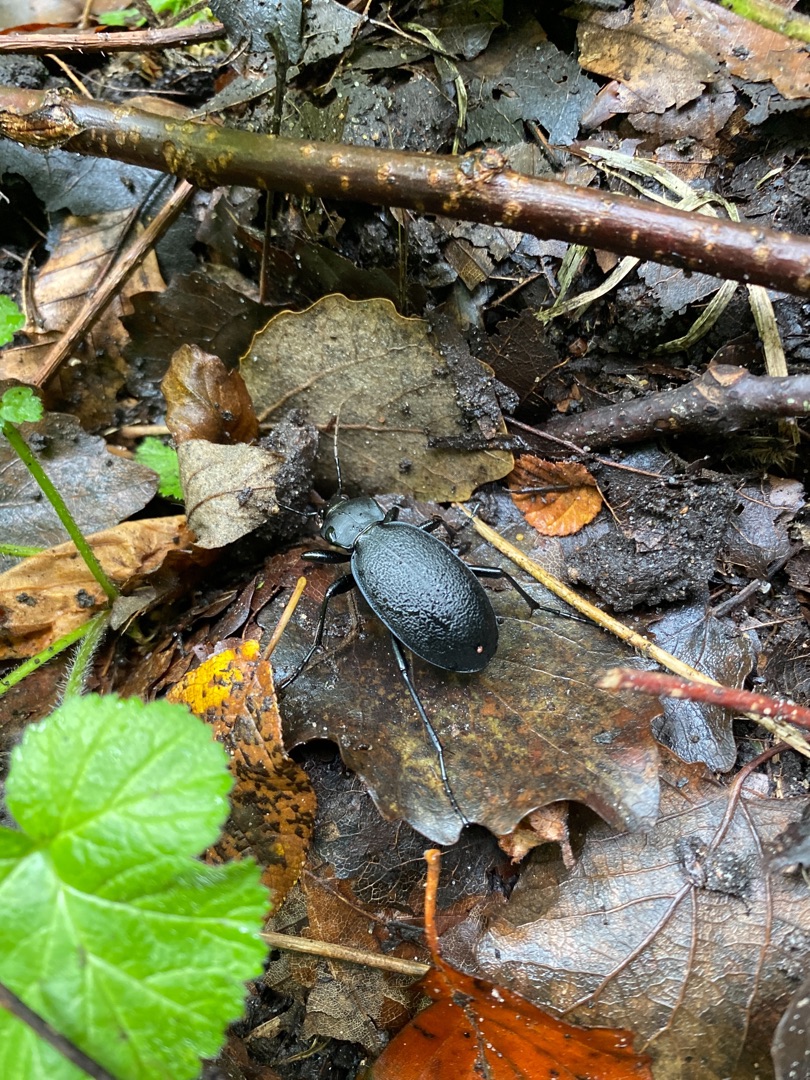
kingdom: Animalia
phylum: Arthropoda
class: Insecta
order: Coleoptera
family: Carabidae
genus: Carabus
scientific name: Carabus coriaceus
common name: Læderløber
